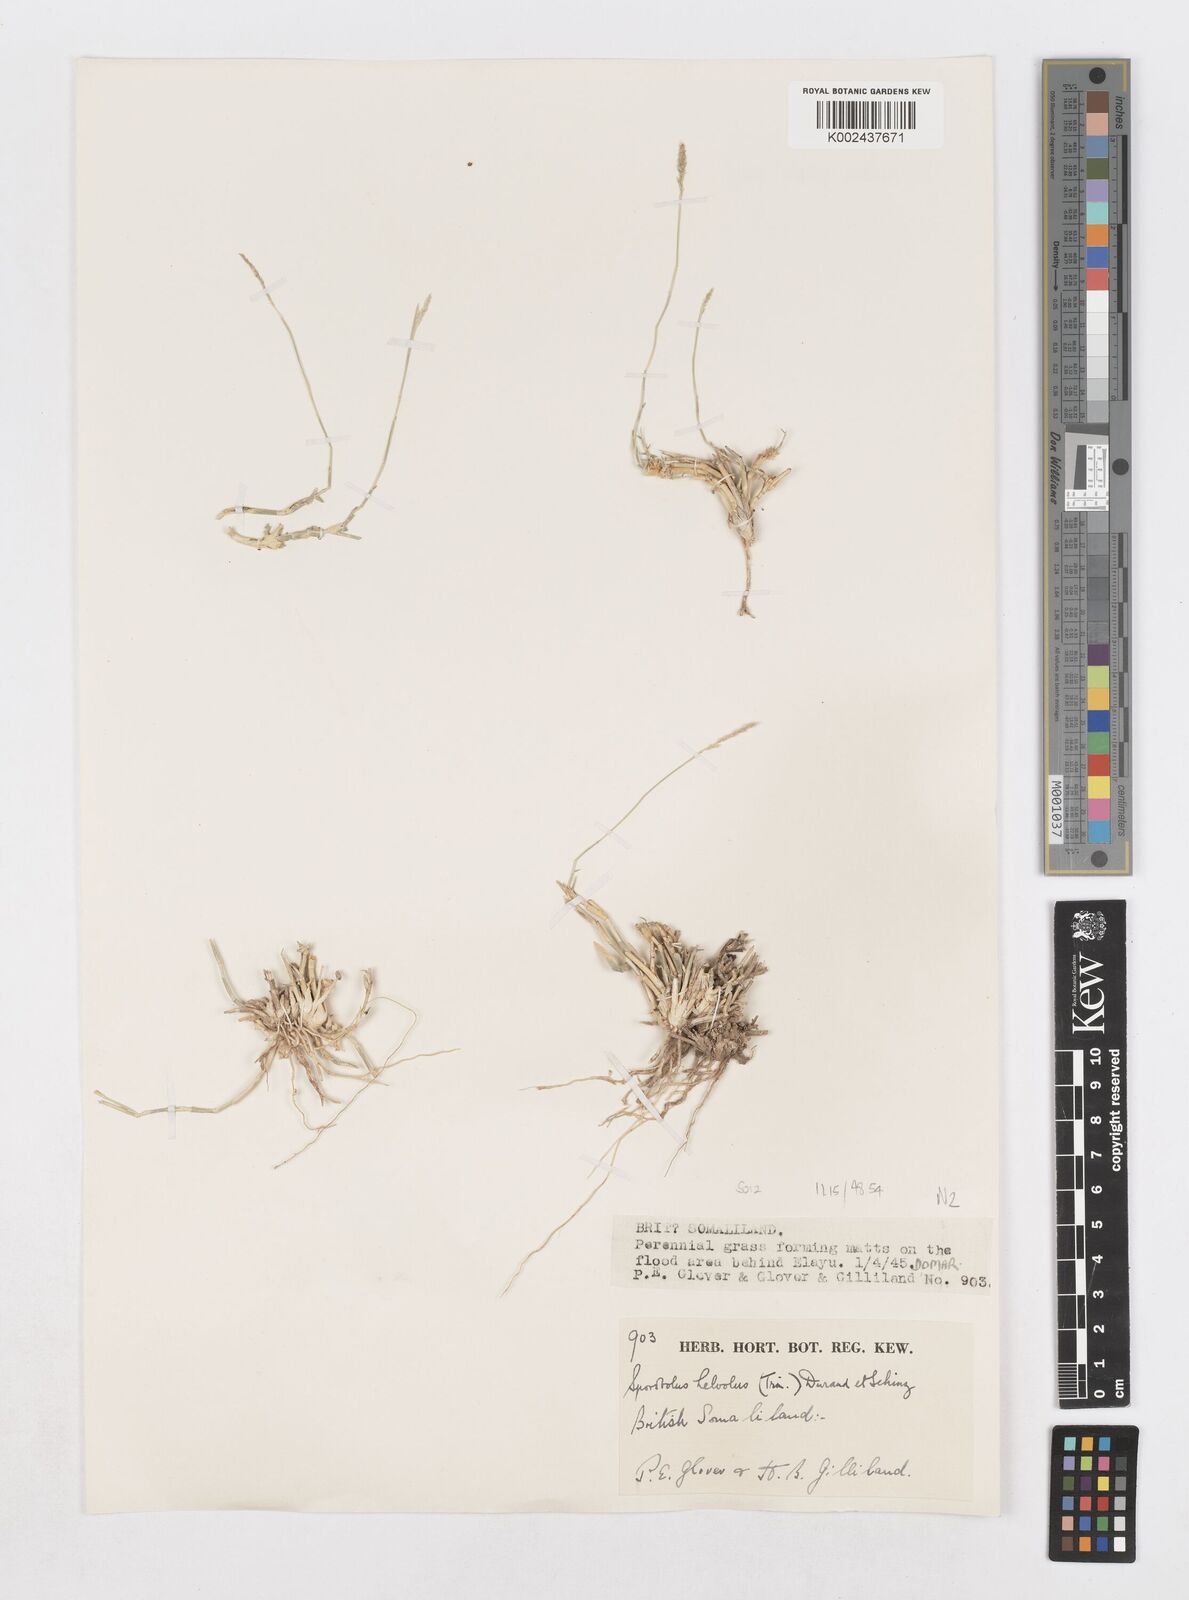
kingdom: Plantae
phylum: Tracheophyta
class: Liliopsida
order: Poales
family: Poaceae
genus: Sporobolus
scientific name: Sporobolus helvolus
